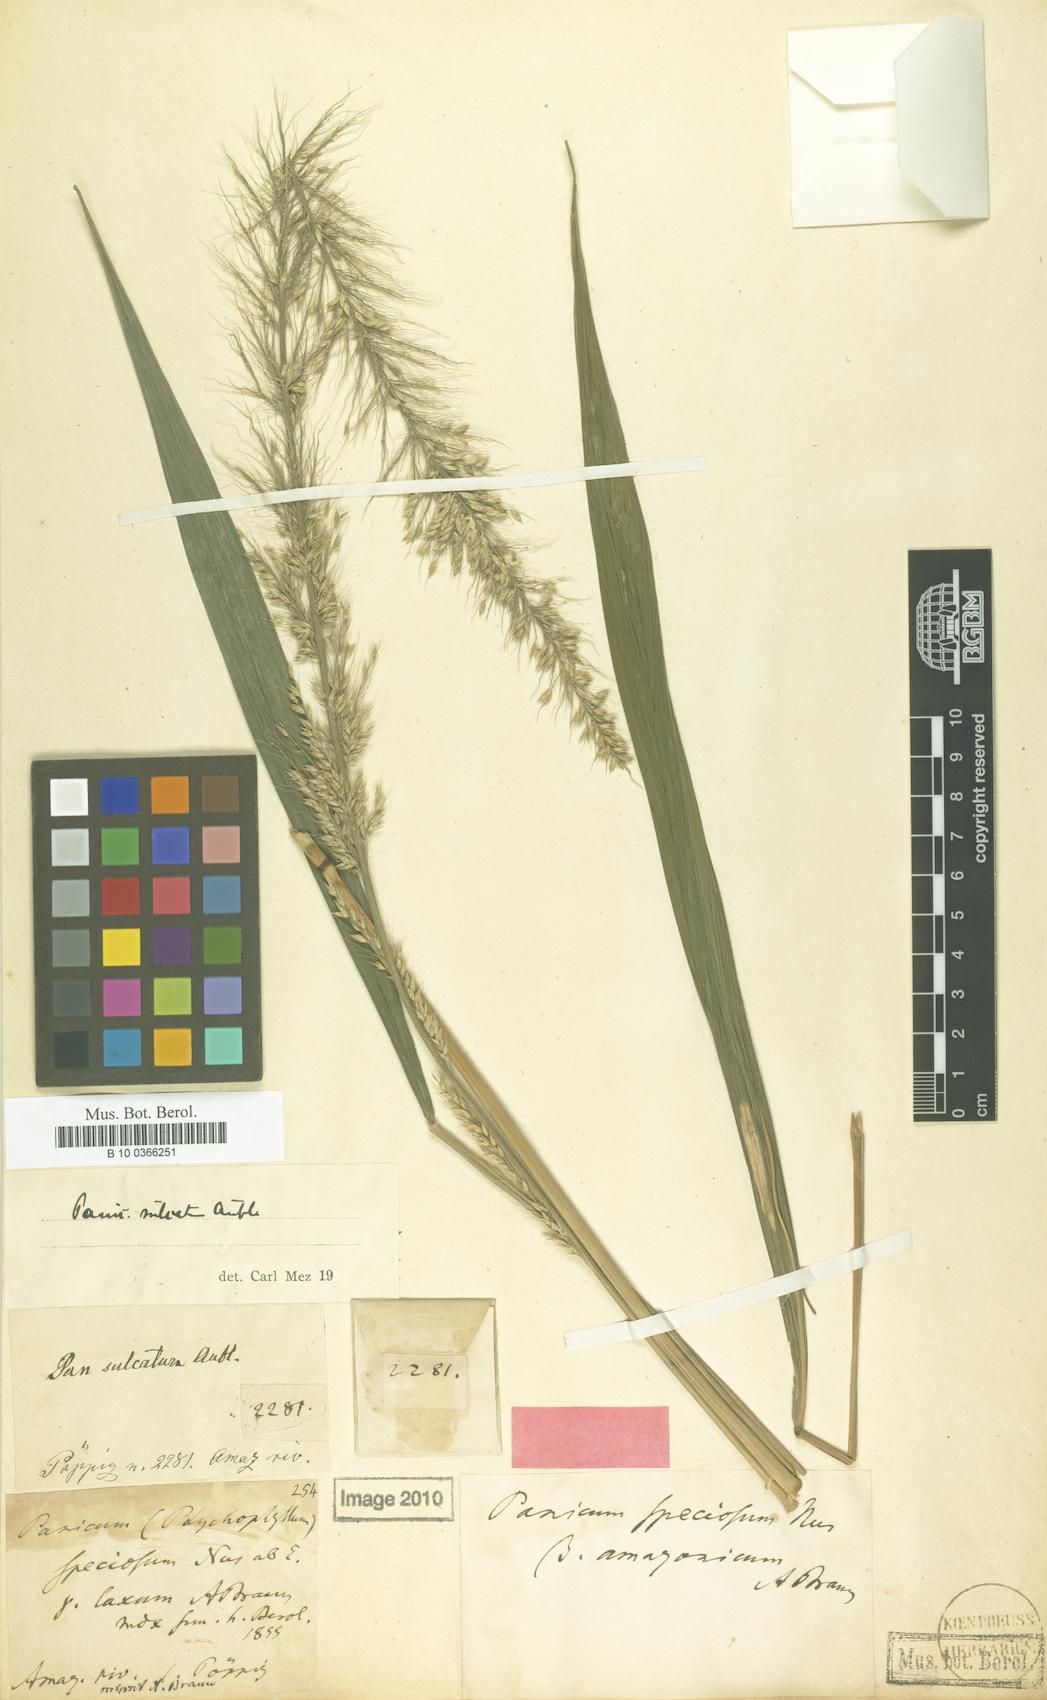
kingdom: Plantae
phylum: Tracheophyta
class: Liliopsida
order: Poales
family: Poaceae
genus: Setaria
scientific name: Setaria poiretiana
